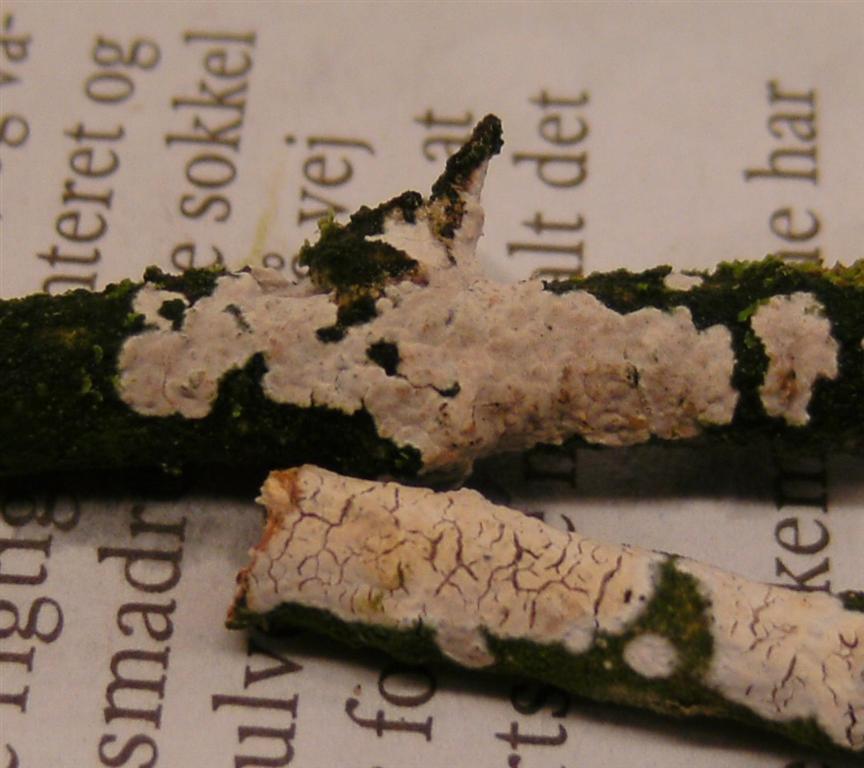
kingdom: Fungi
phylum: Basidiomycota
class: Agaricomycetes
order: Russulales
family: Peniophoraceae
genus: Peniophora
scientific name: Peniophora lycii
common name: grynet voksskind
